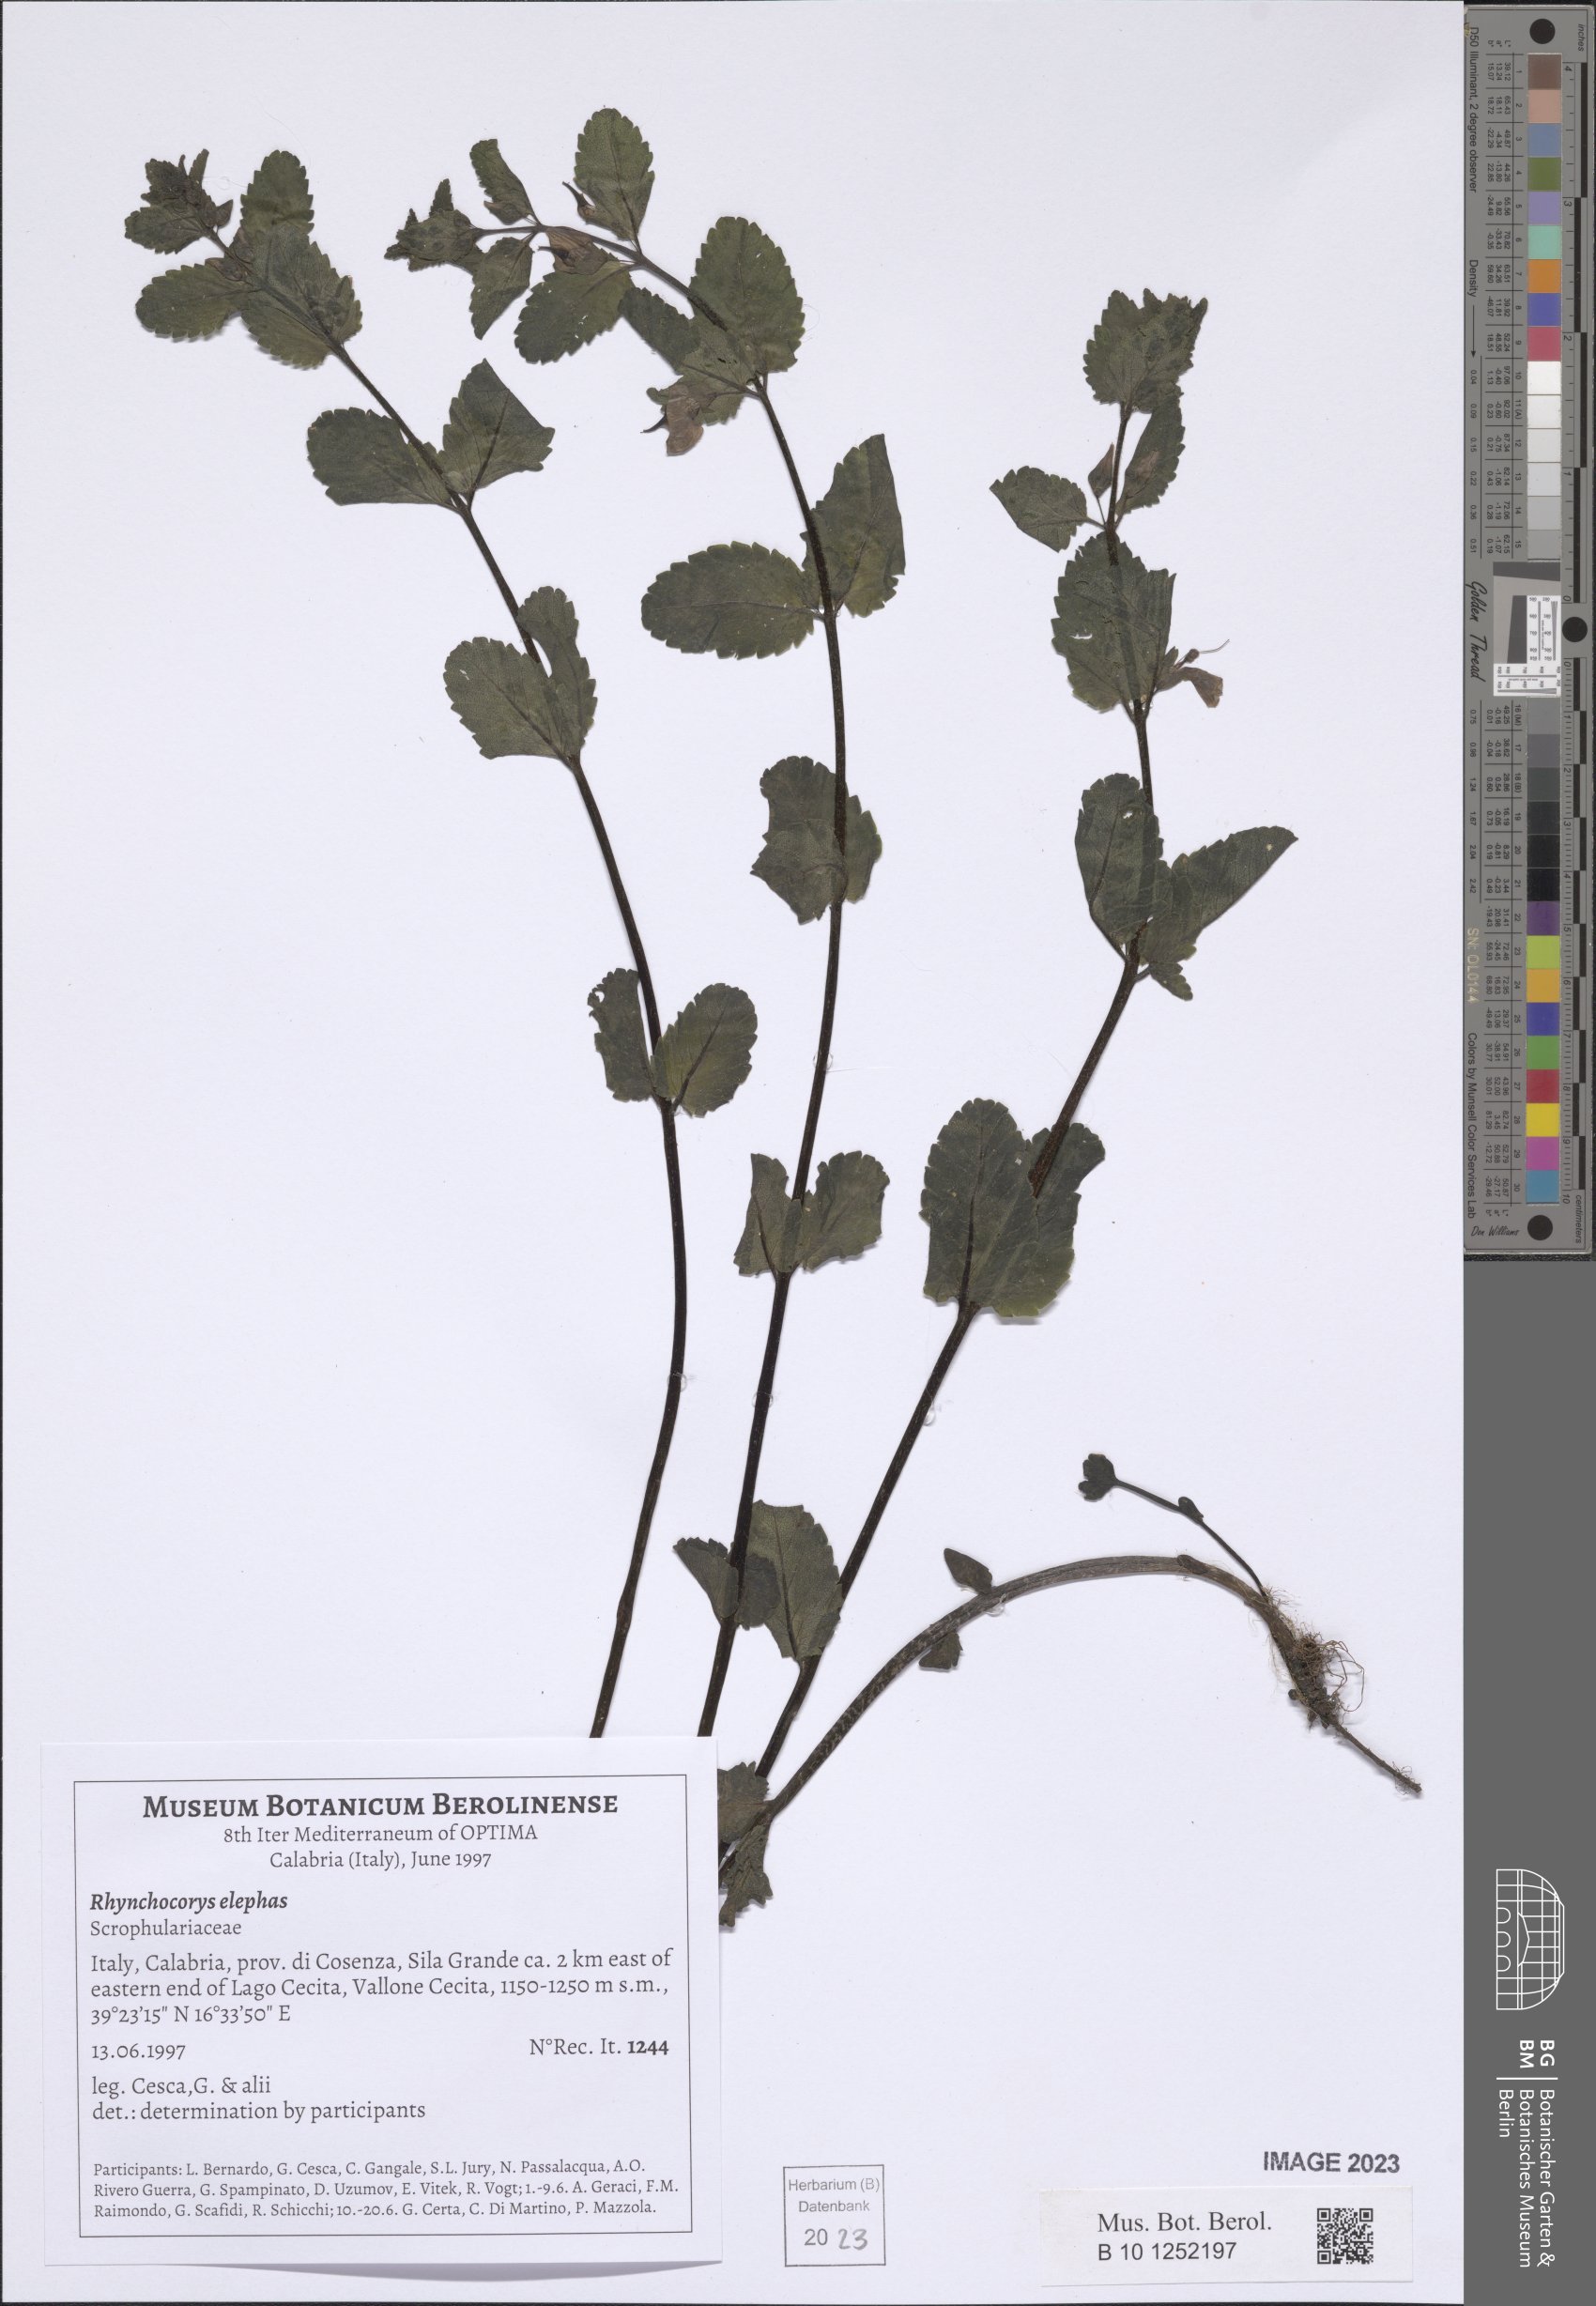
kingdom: Plantae
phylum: Tracheophyta
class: Magnoliopsida
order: Lamiales
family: Orobanchaceae
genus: Rhynchocorys
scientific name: Rhynchocorys elephas
